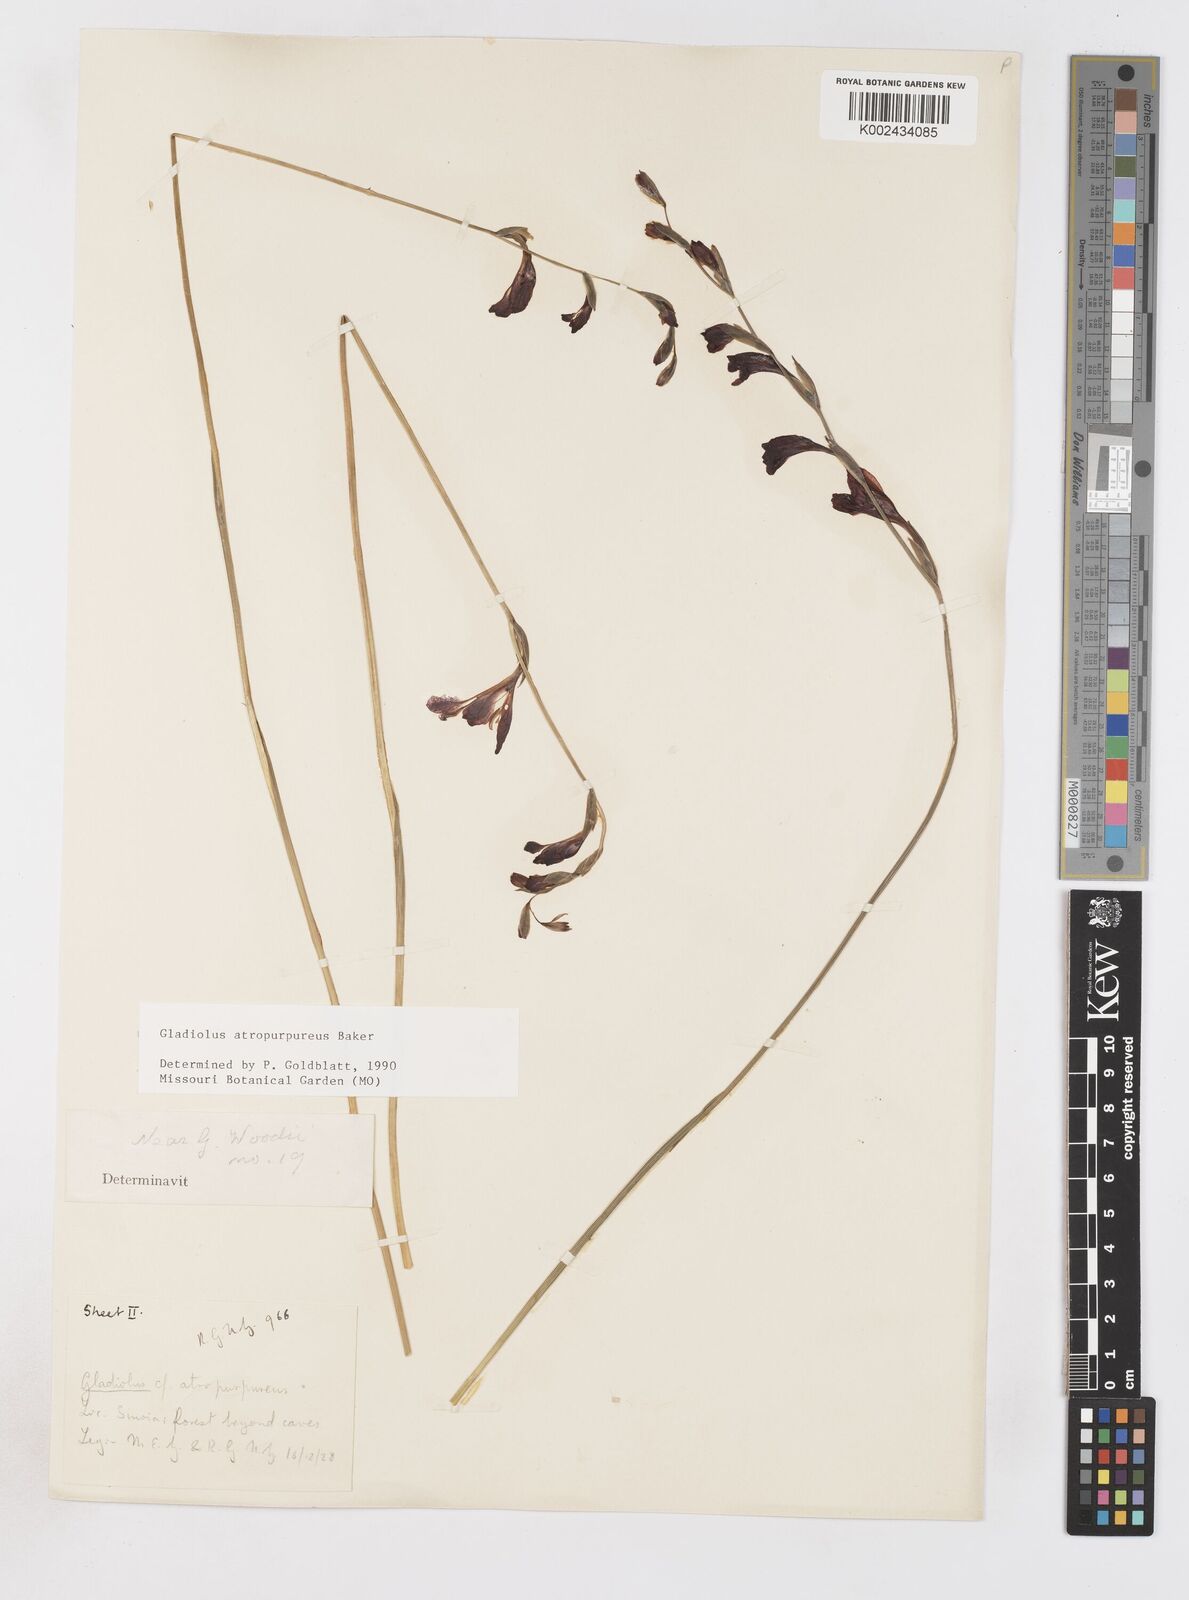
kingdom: Plantae
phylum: Tracheophyta
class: Liliopsida
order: Asparagales
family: Iridaceae
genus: Gladiolus
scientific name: Gladiolus atropurpureus
